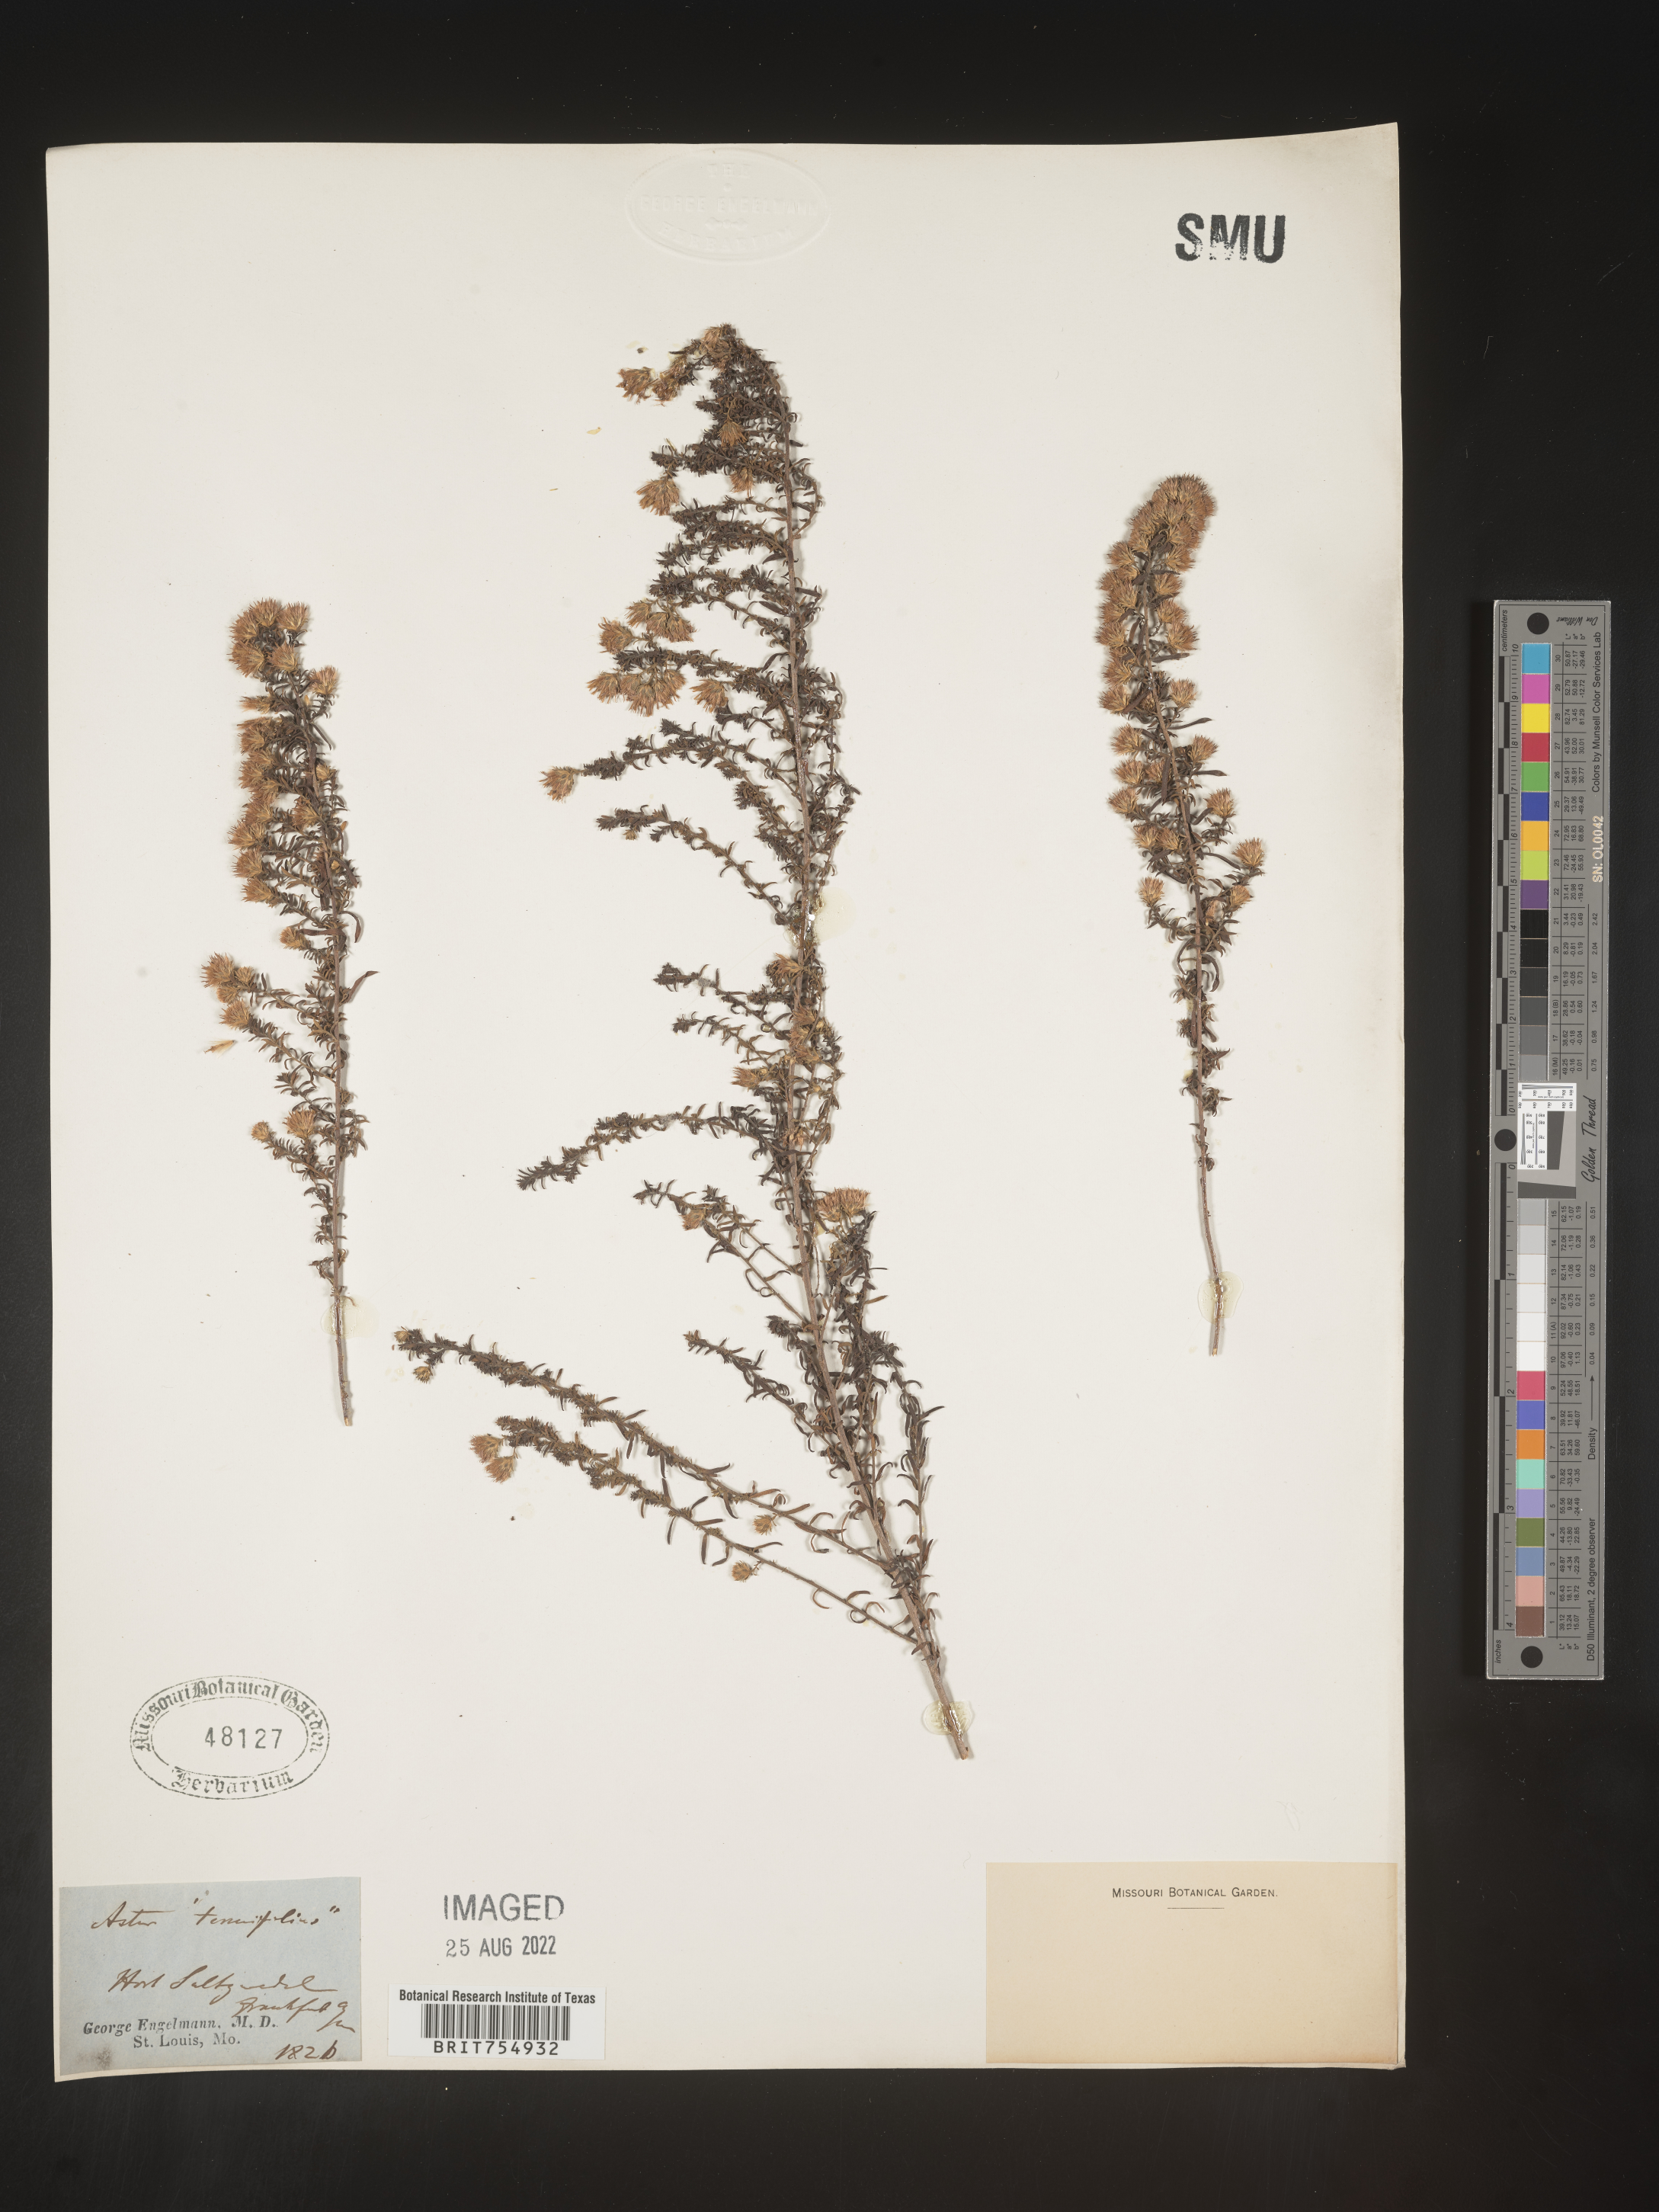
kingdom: Plantae
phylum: Tracheophyta
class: Magnoliopsida
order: Asterales
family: Asteraceae
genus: Symphyotrichum
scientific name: Symphyotrichum
